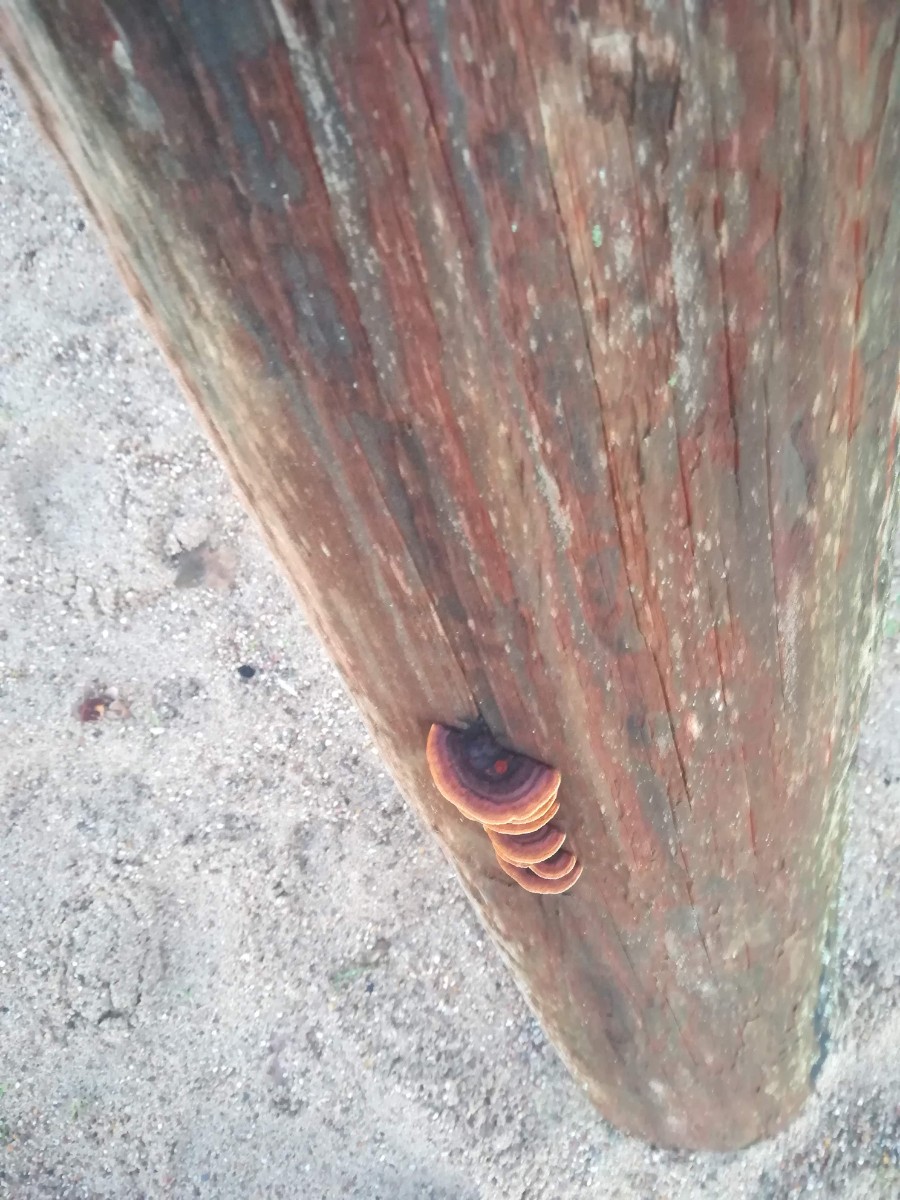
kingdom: Fungi
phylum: Basidiomycota
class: Agaricomycetes
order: Gloeophyllales
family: Gloeophyllaceae
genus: Gloeophyllum
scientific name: Gloeophyllum sepiarium
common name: fyrre-korkhat
